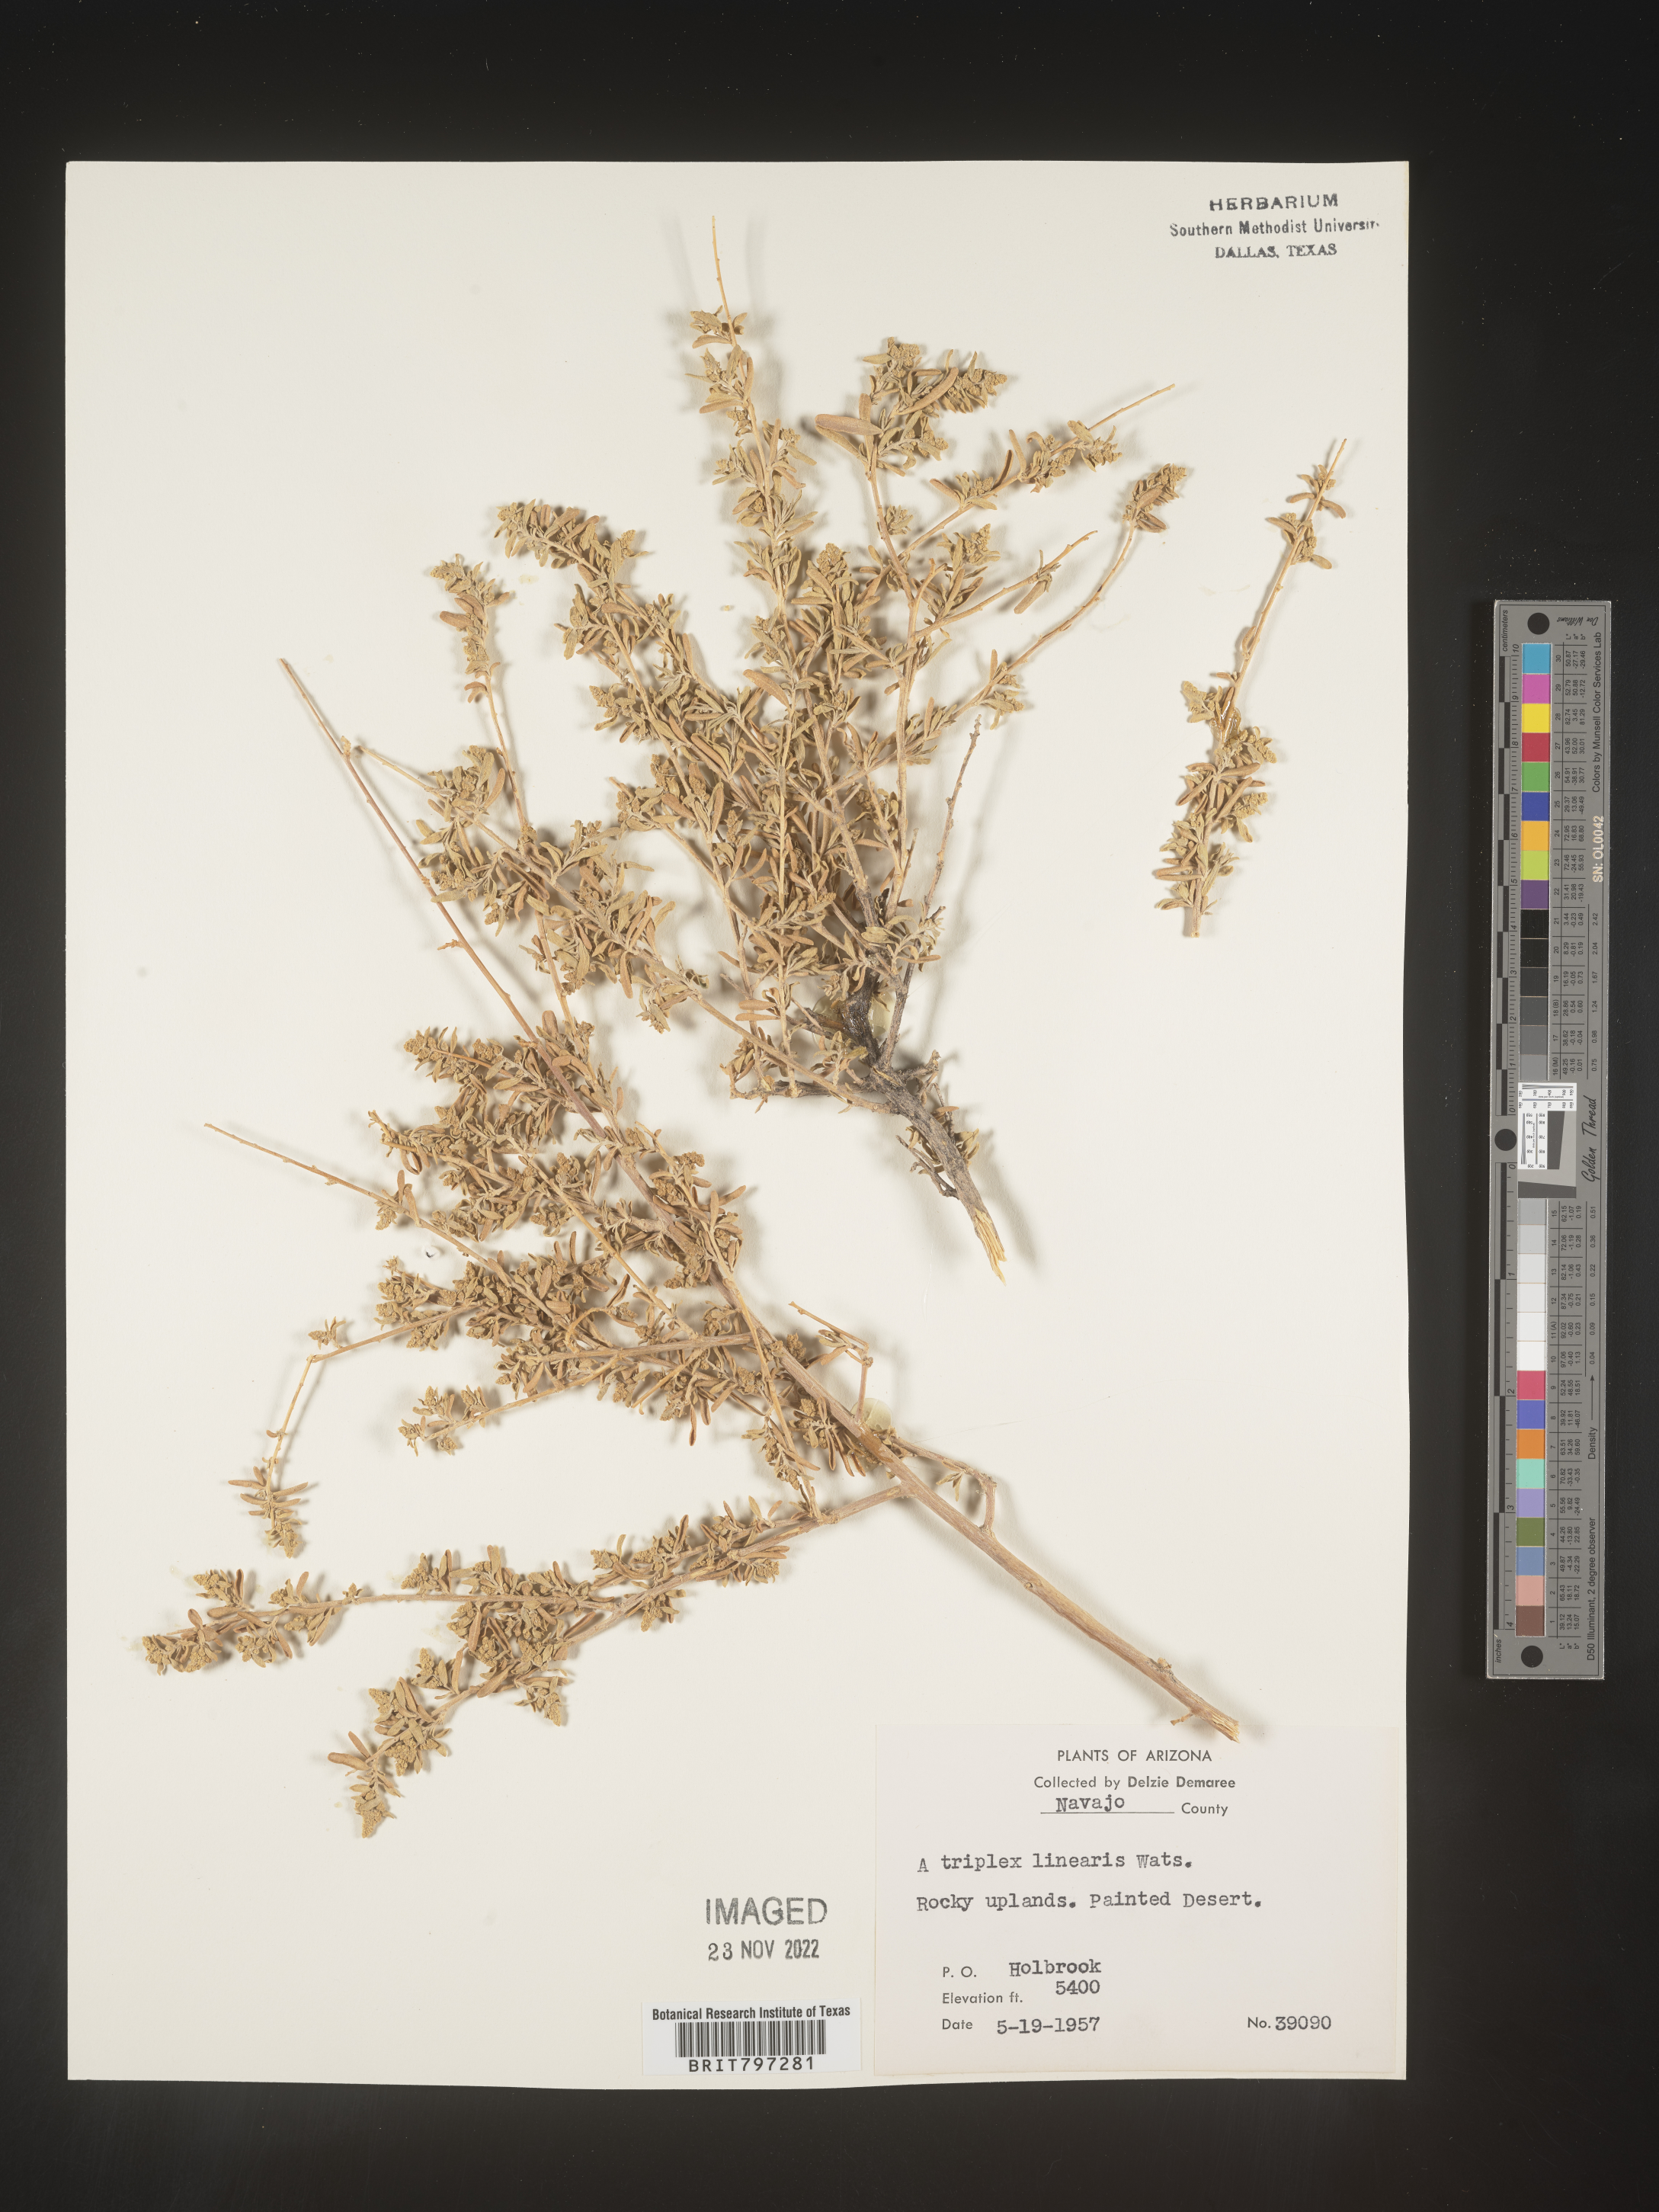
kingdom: Plantae
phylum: Tracheophyta
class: Magnoliopsida
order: Caryophyllales
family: Amaranthaceae
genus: Atriplex
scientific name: Atriplex
